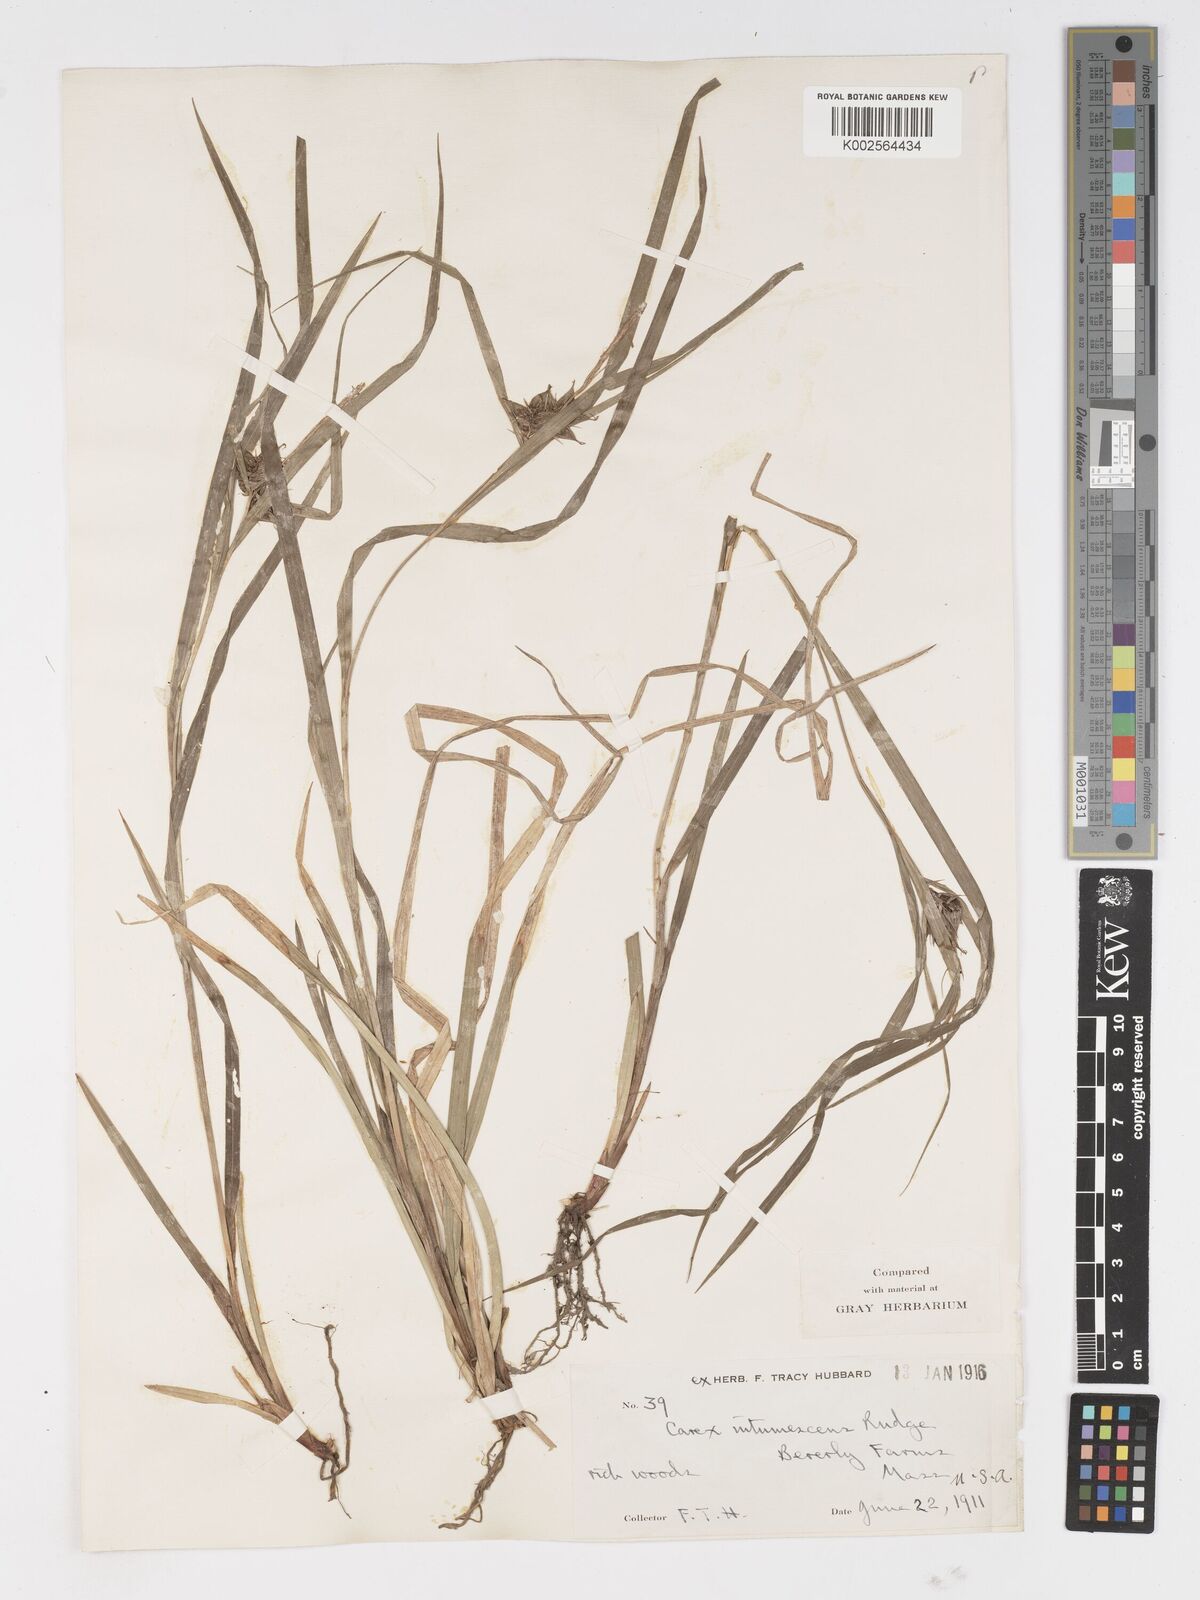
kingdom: Plantae
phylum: Tracheophyta
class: Liliopsida
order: Poales
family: Cyperaceae
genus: Carex
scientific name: Carex intumescens
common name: Greater bladder sedge
